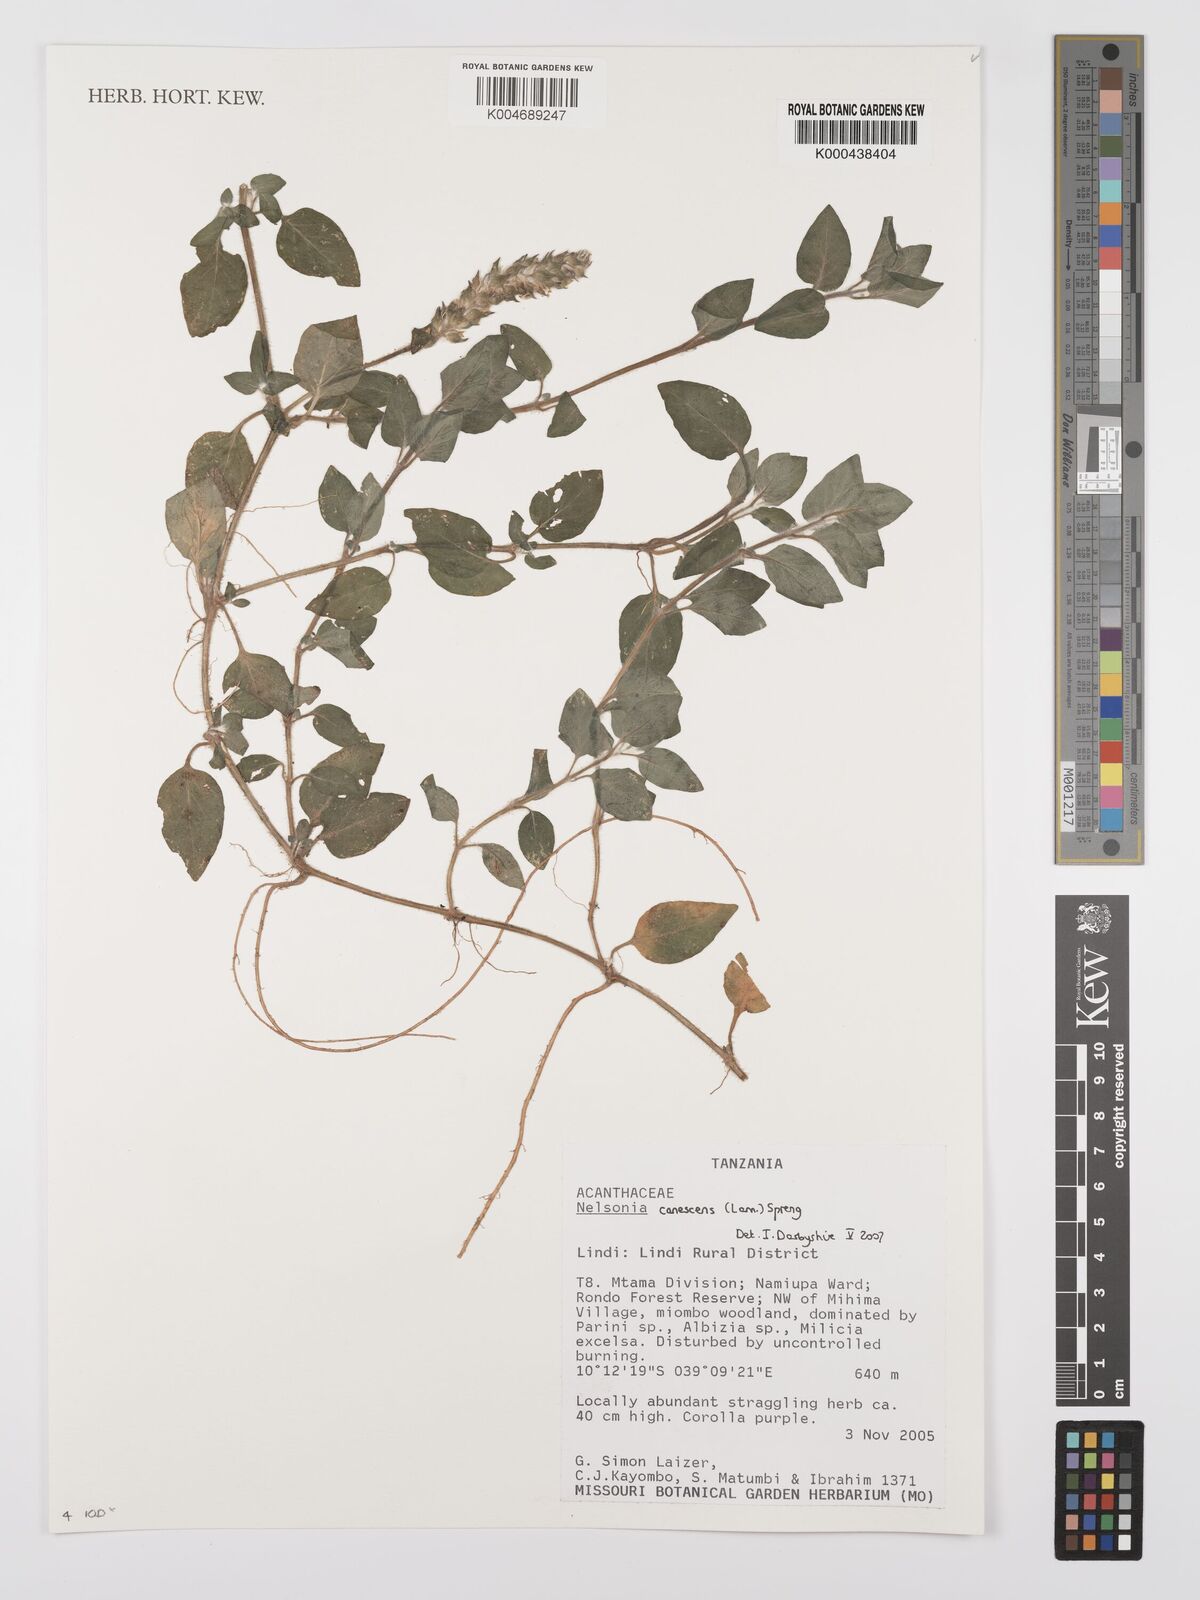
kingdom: Plantae
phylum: Tracheophyta
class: Magnoliopsida
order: Lamiales
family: Acanthaceae
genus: Nelsonia
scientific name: Nelsonia canescens
